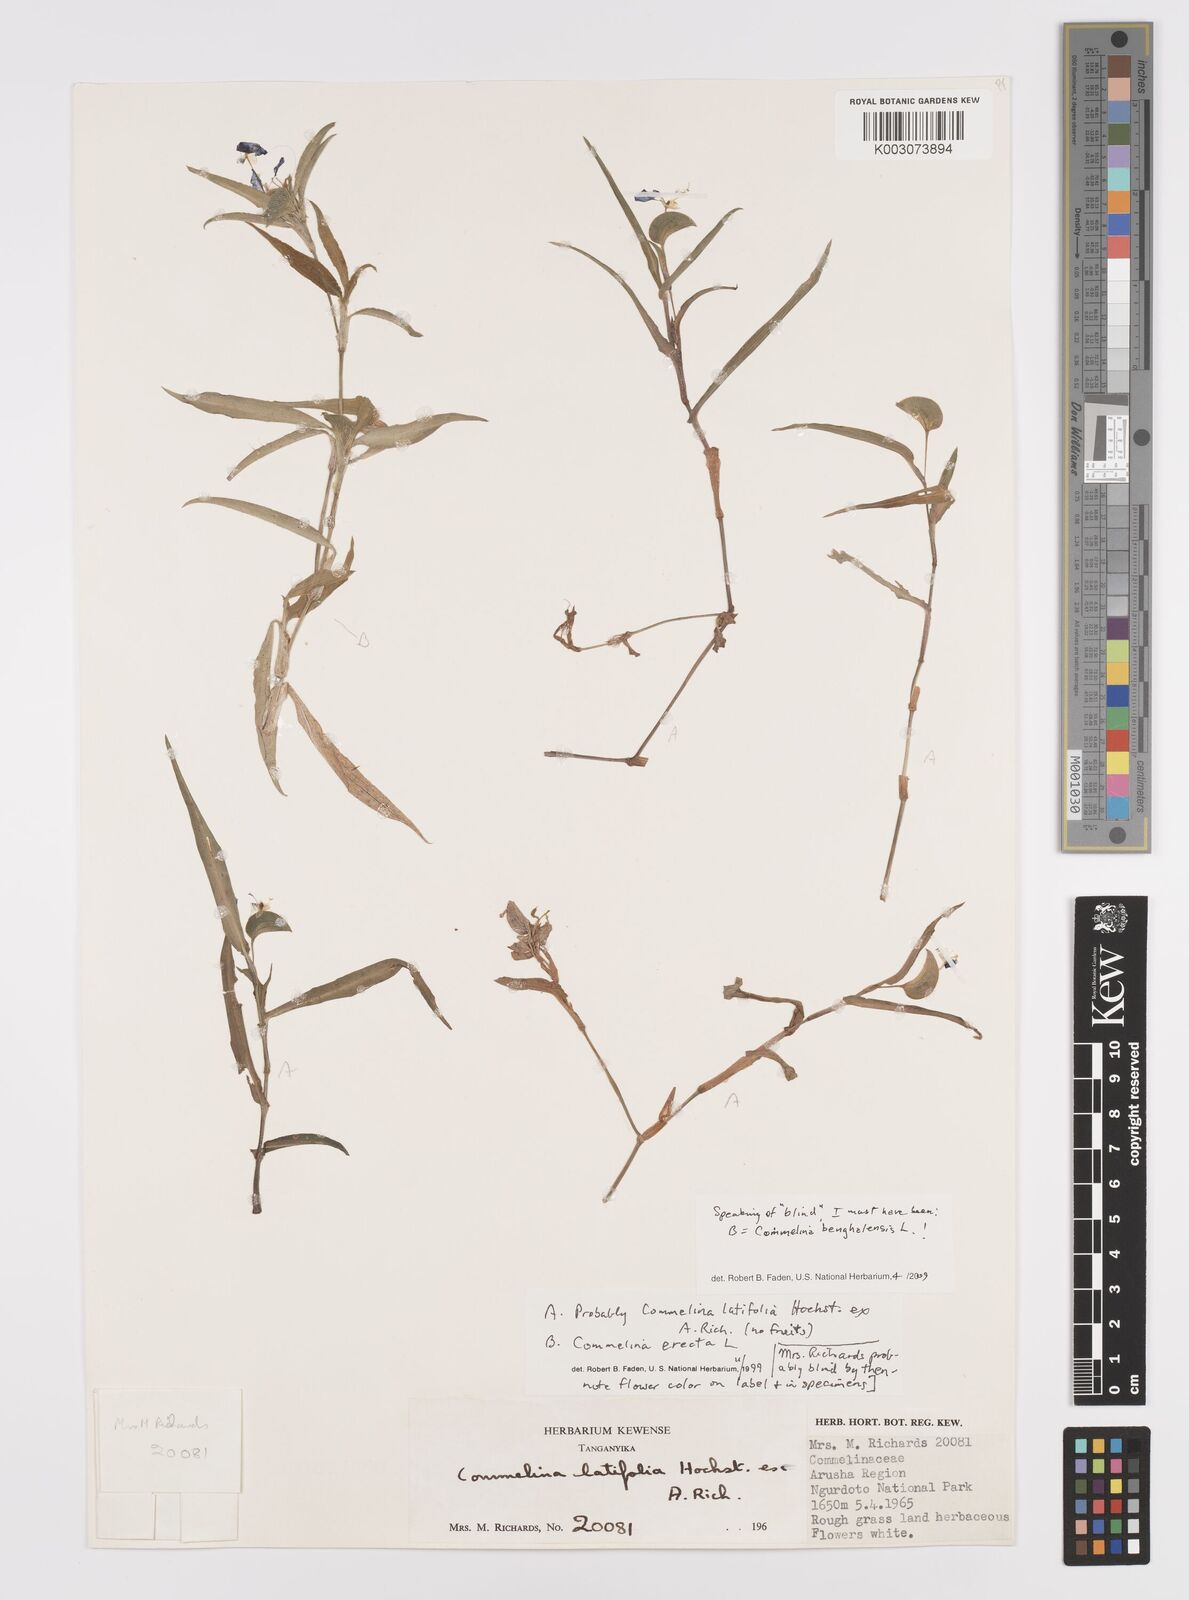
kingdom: Plantae
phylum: Tracheophyta
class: Liliopsida
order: Commelinales
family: Commelinaceae
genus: Commelina
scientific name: Commelina latifolia
